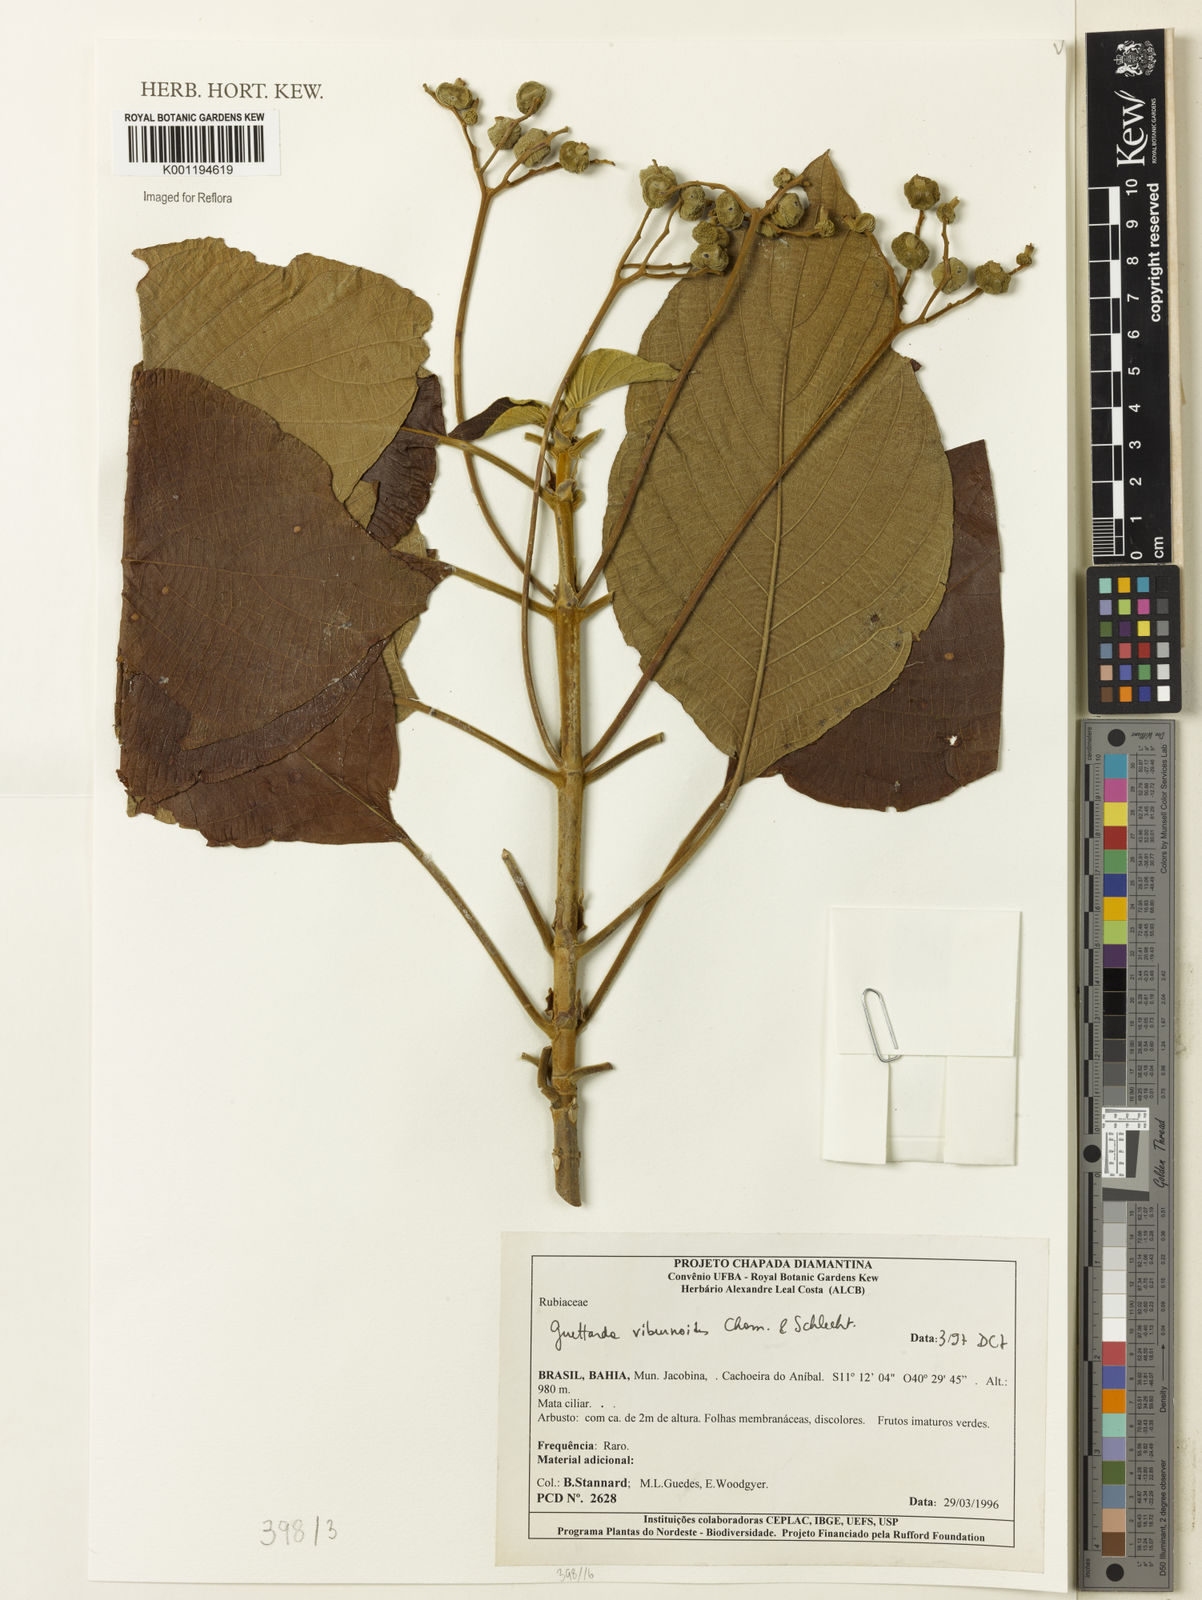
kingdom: Plantae
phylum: Tracheophyta
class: Magnoliopsida
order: Gentianales
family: Rubiaceae
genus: Guettarda
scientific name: Guettarda viburnoides
